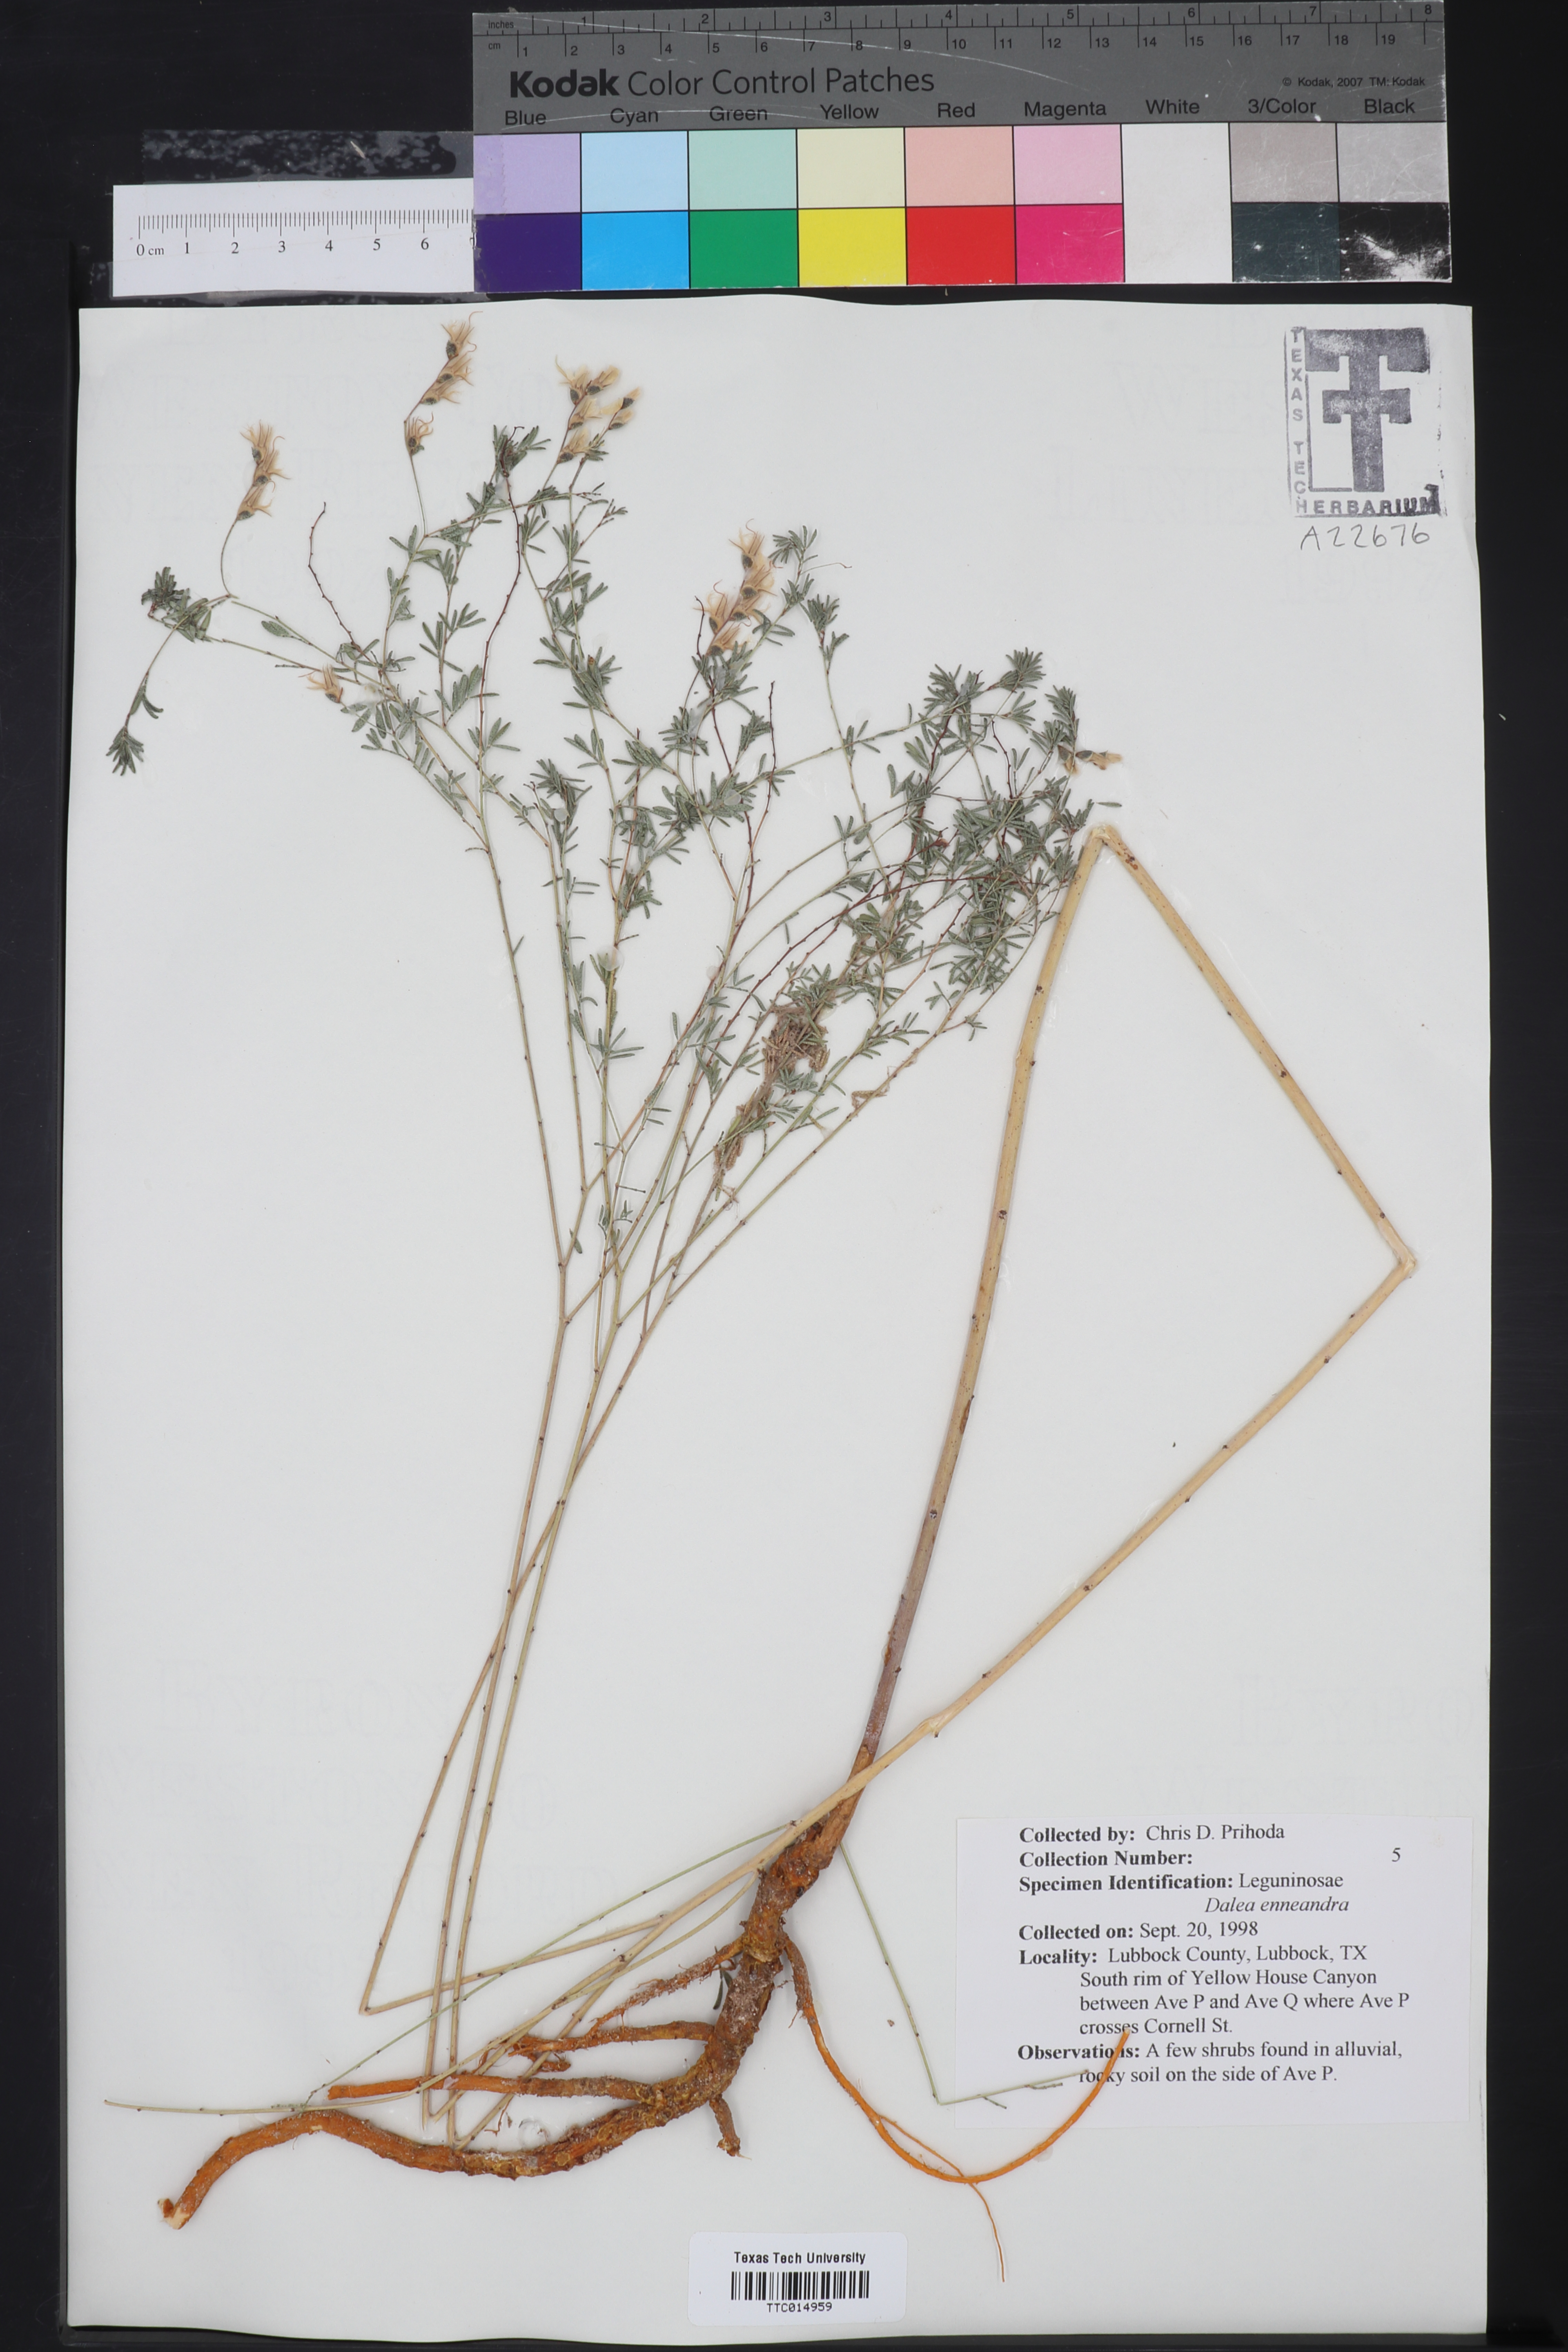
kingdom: Plantae
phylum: Tracheophyta
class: Magnoliopsida
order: Fabales
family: Fabaceae
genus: Dalea
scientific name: Dalea enneandra
